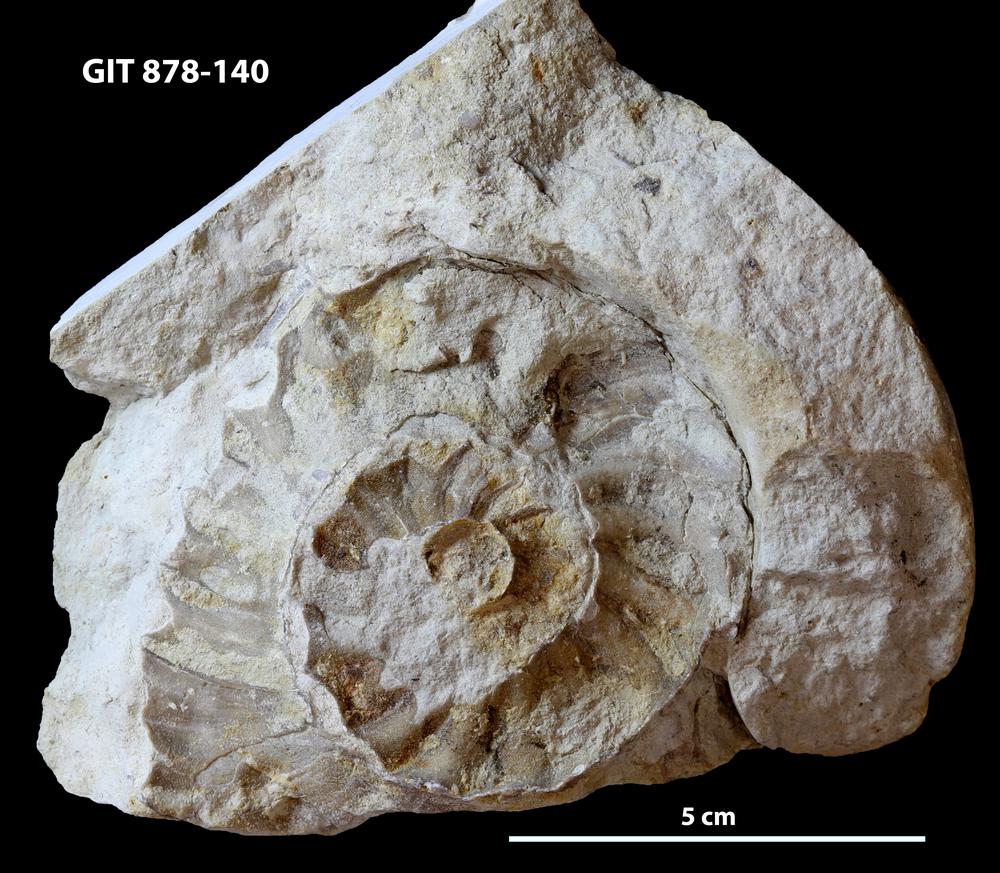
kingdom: Animalia
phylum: Mollusca
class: Cephalopoda
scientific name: Cephalopoda
